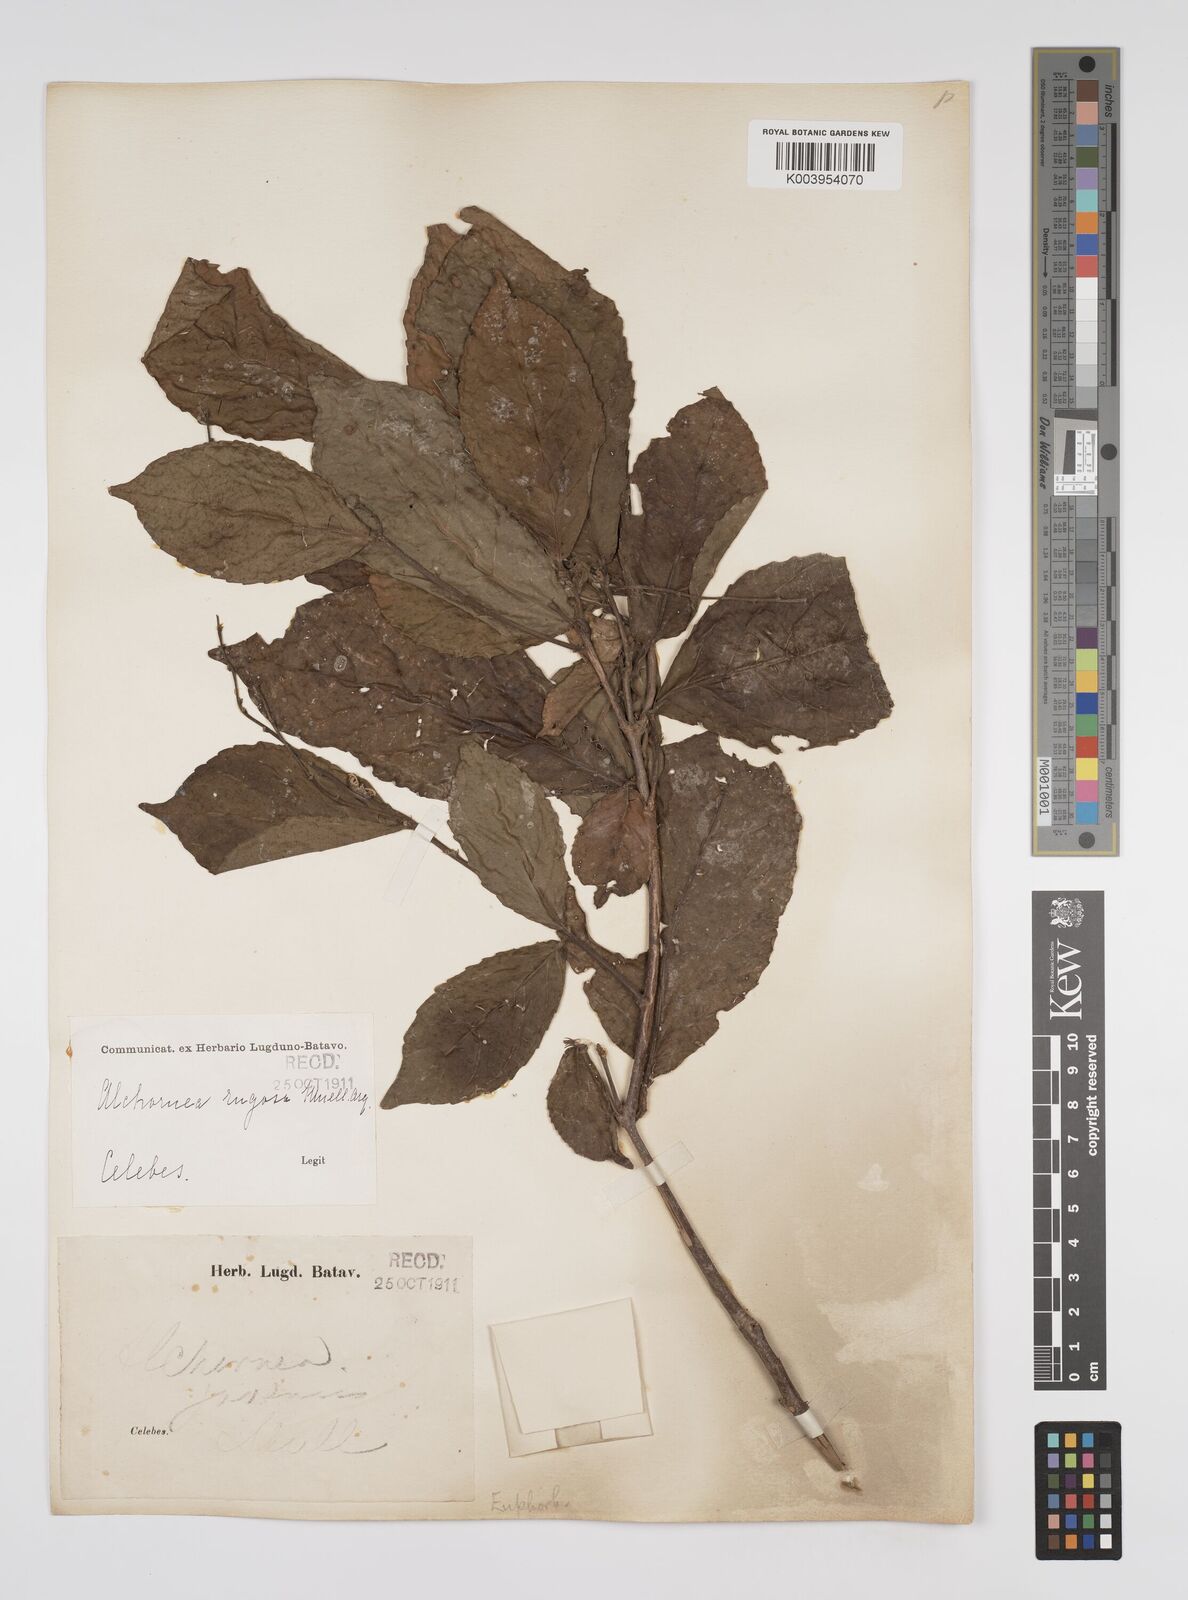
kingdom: Plantae
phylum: Tracheophyta
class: Magnoliopsida
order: Malpighiales
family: Euphorbiaceae
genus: Alchornea
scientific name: Alchornea rugosa
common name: Alchorntree
